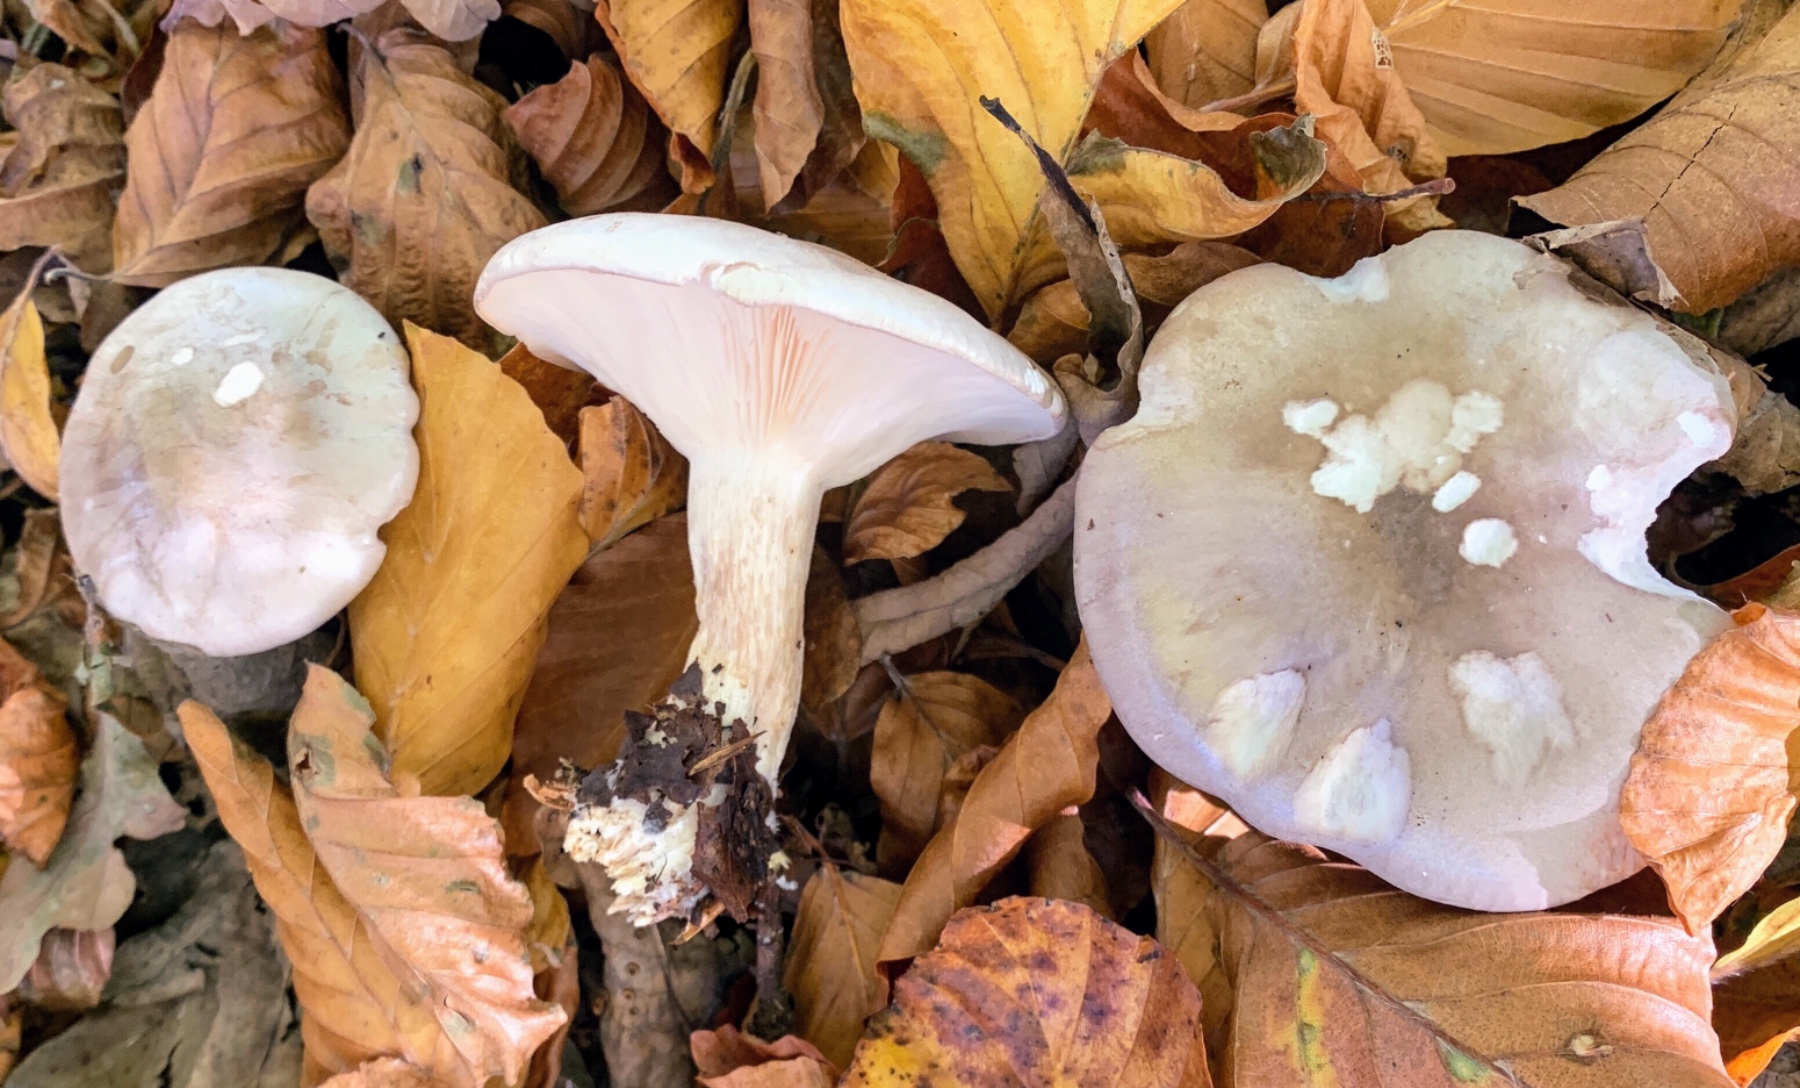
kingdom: Fungi
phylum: Basidiomycota
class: Agaricomycetes
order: Agaricales
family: Tricholomataceae
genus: Clitocybe
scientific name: Clitocybe nebularis
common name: tåge-tragthat
